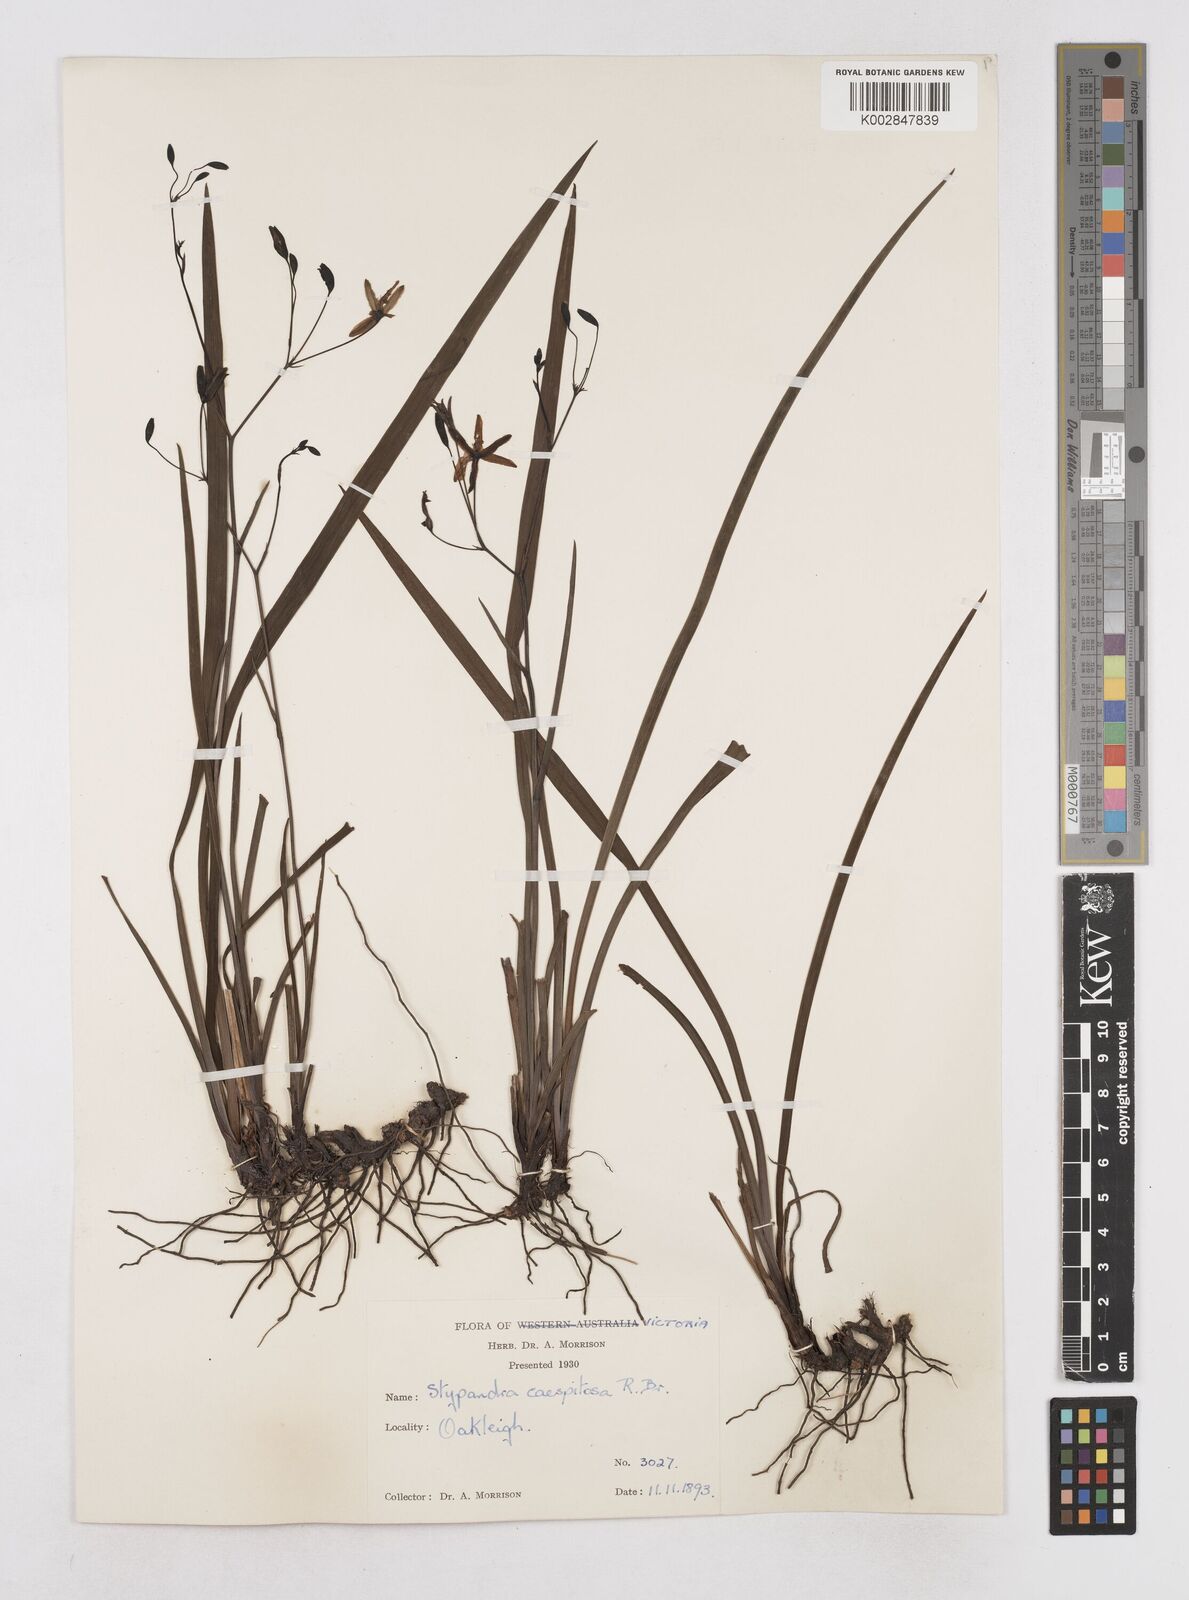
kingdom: Plantae
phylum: Tracheophyta
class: Liliopsida
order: Asparagales
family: Asphodelaceae
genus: Thelionema
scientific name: Thelionema caespitosum
